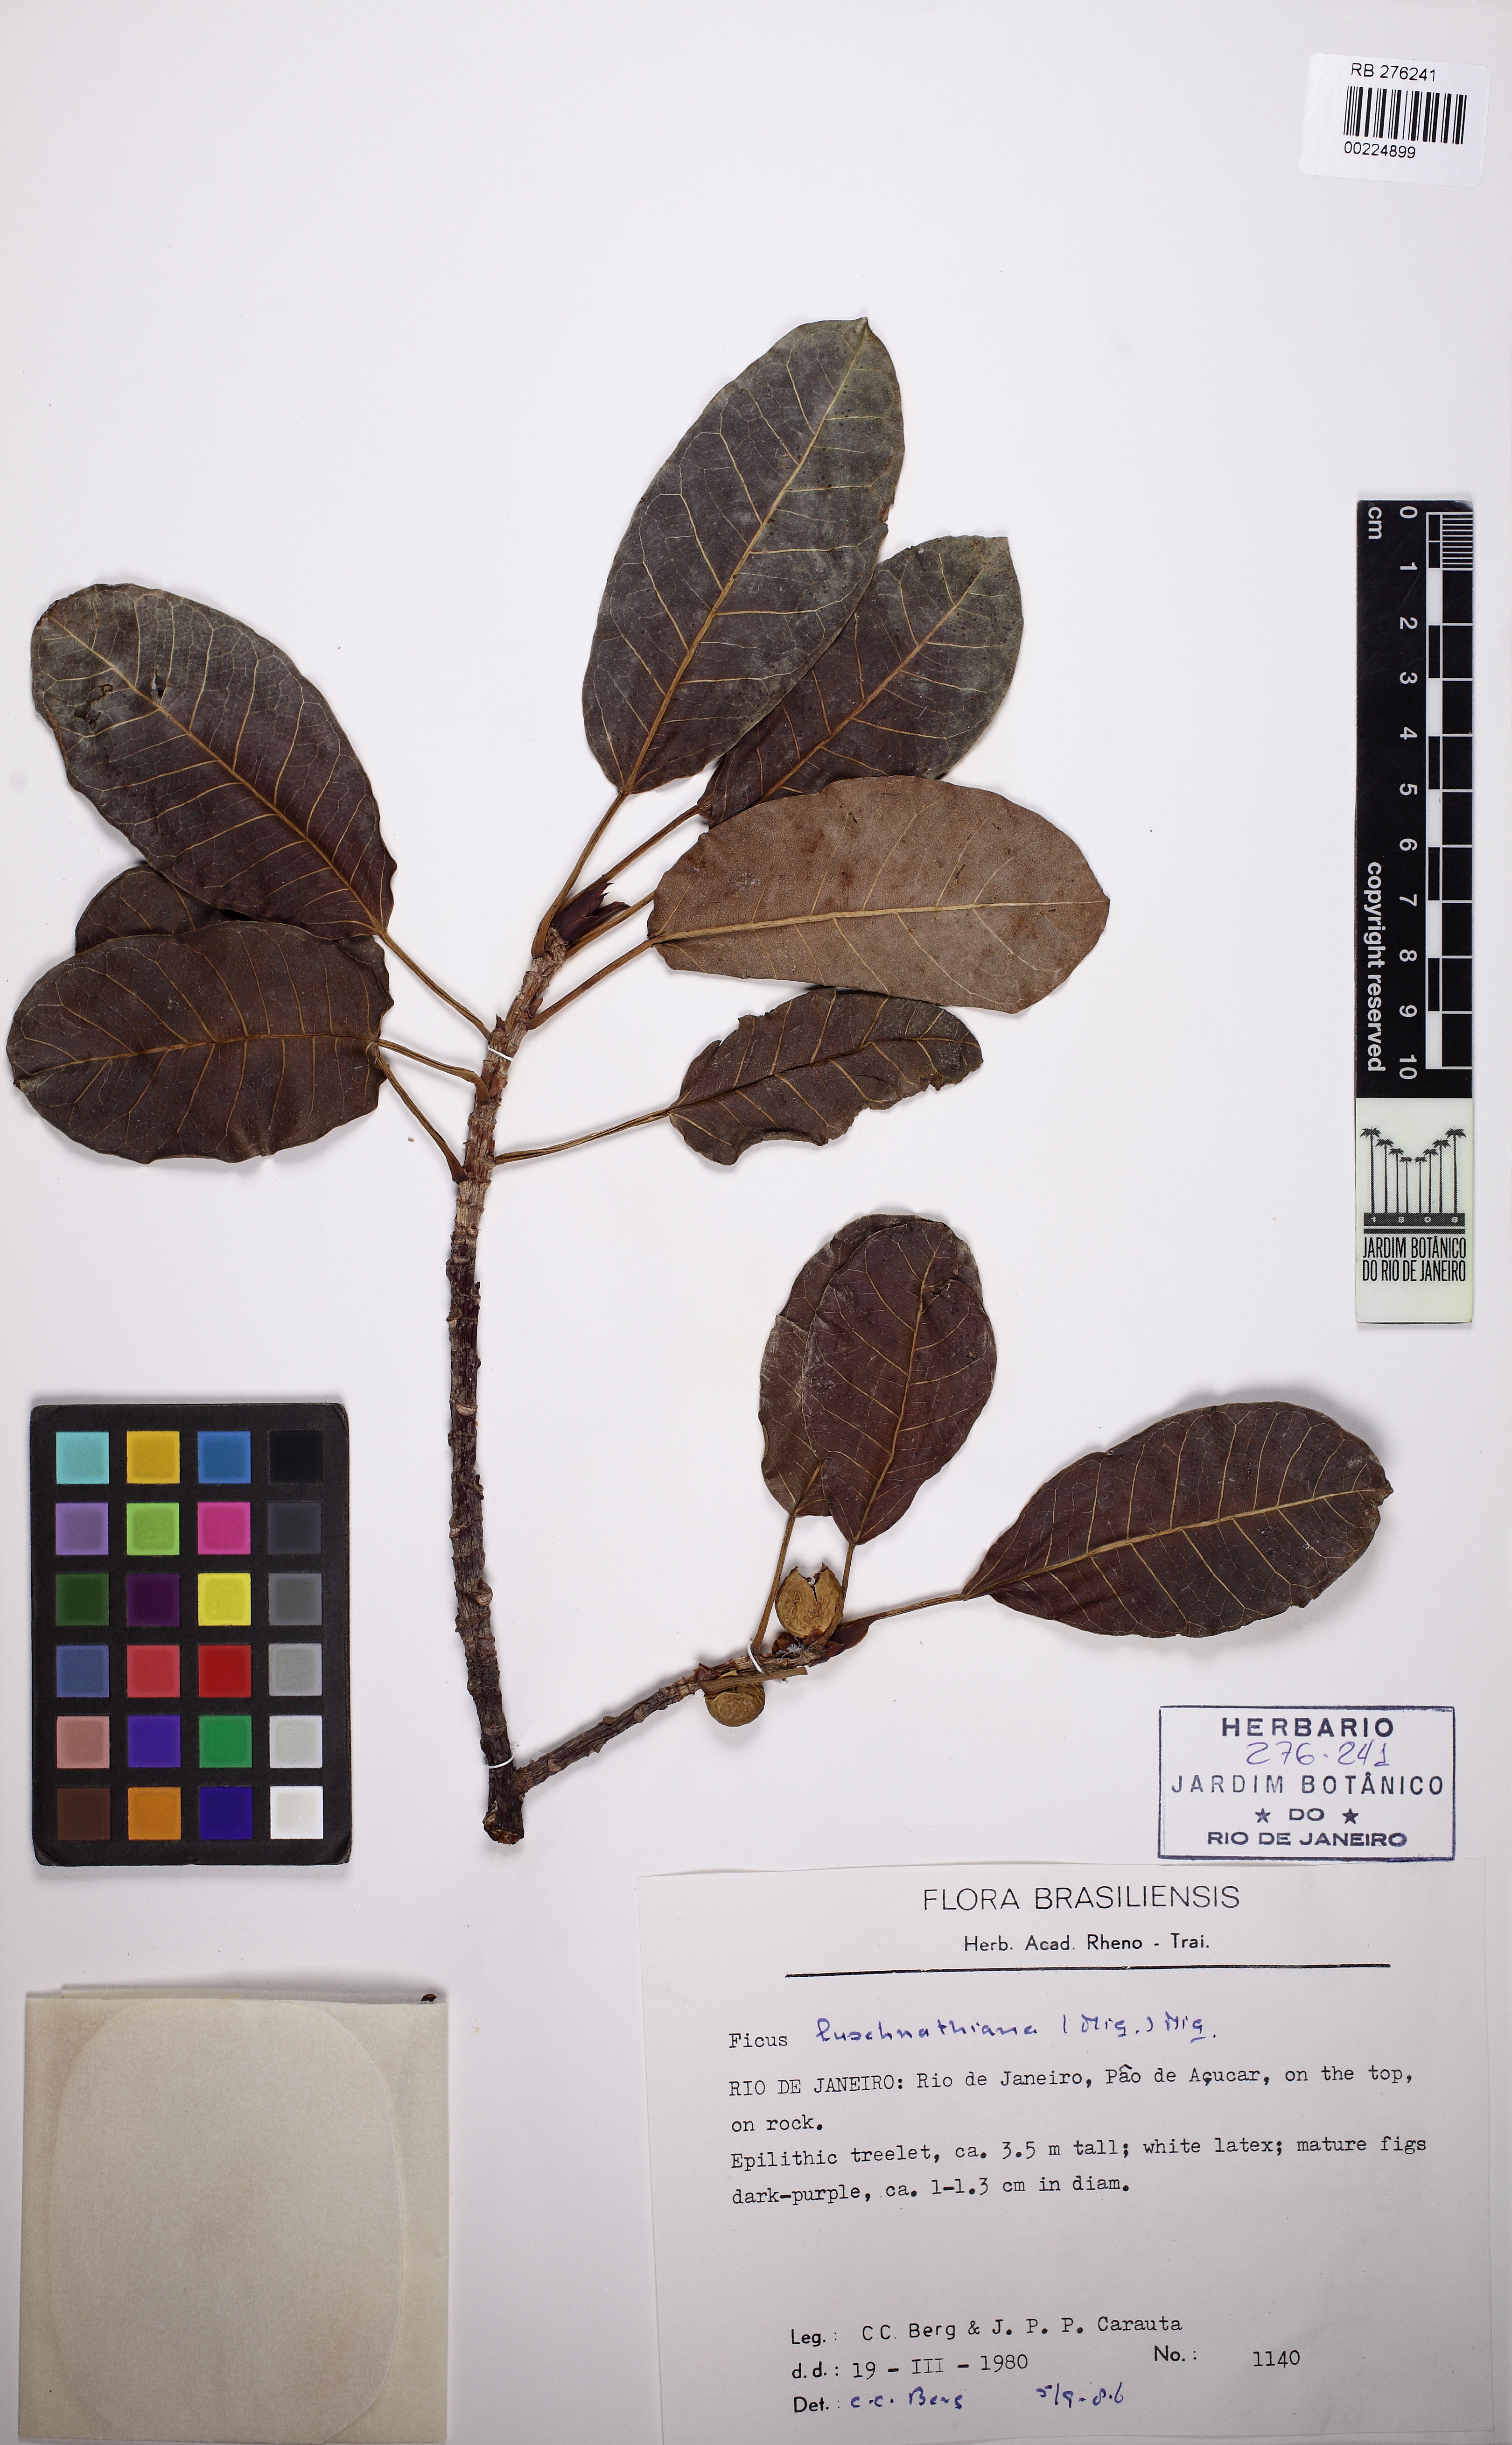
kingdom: Plantae
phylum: Tracheophyta
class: Magnoliopsida
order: Rosales
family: Moraceae
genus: Ficus
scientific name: Ficus luschnathiana
